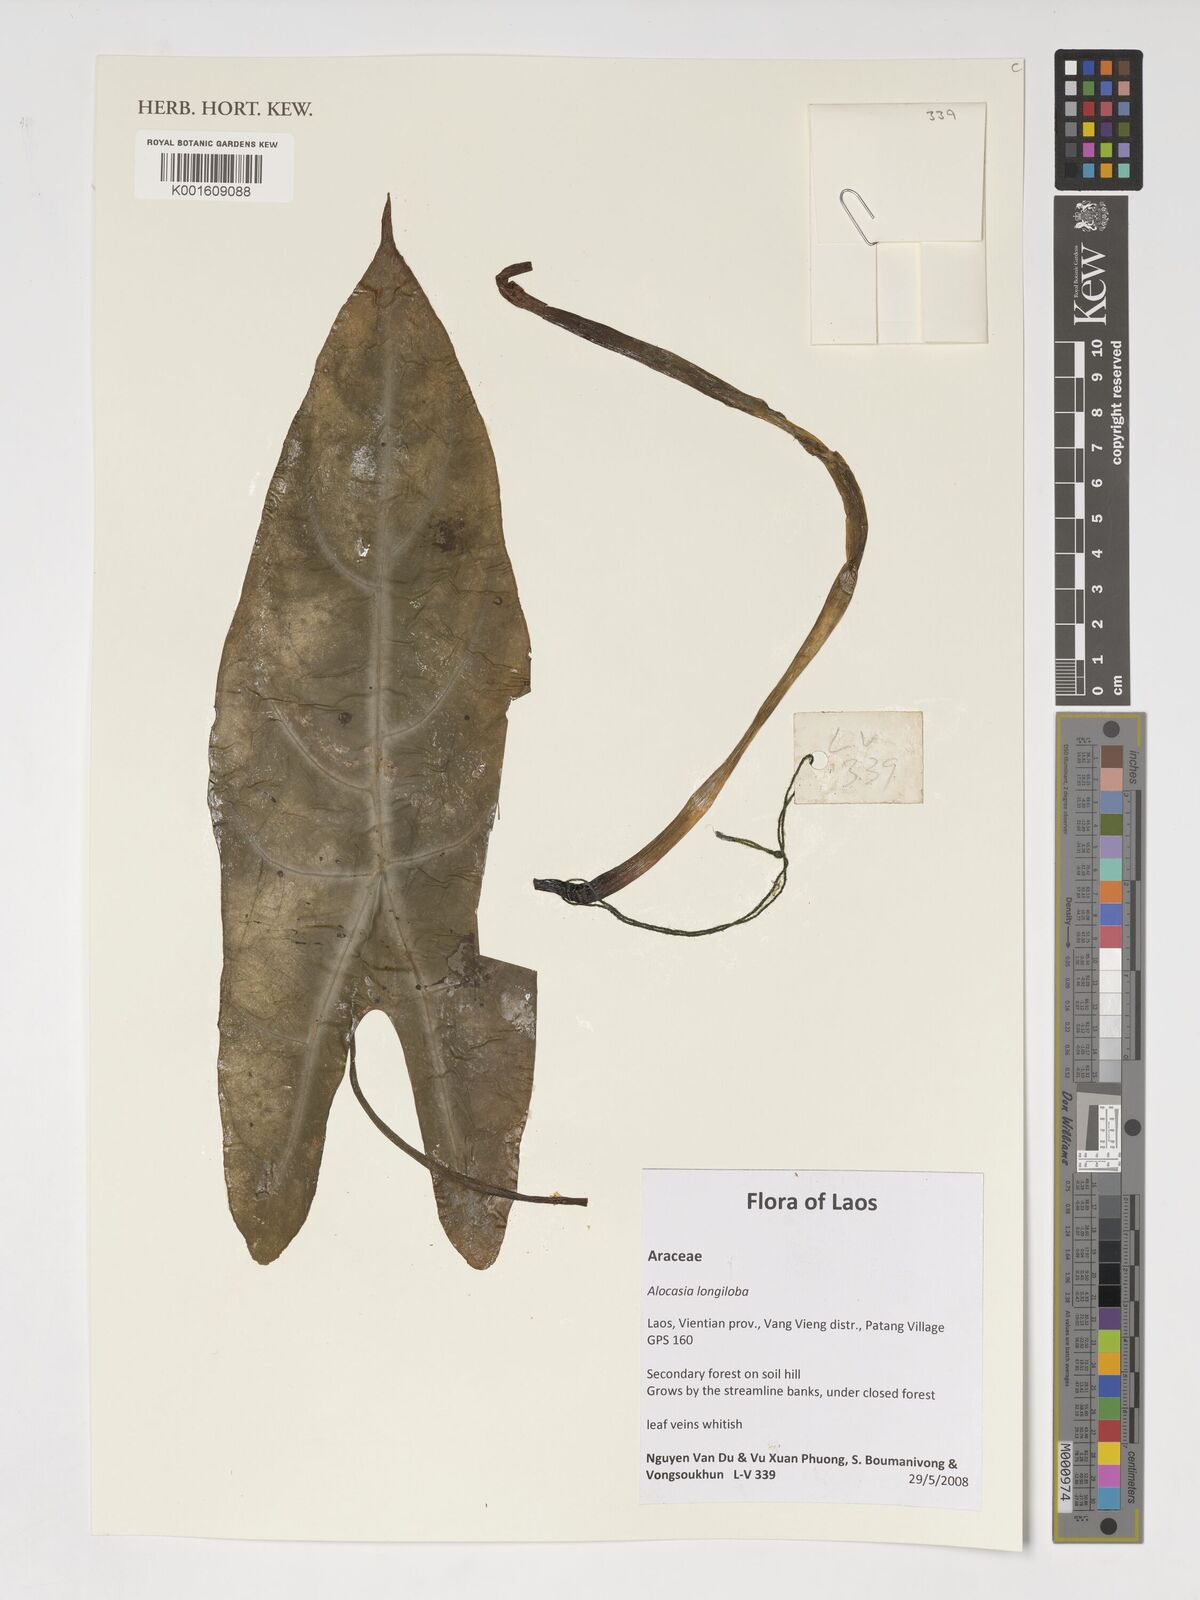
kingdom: Plantae
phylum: Tracheophyta
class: Liliopsida
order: Alismatales
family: Araceae
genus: Alocasia
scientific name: Alocasia longiloba
